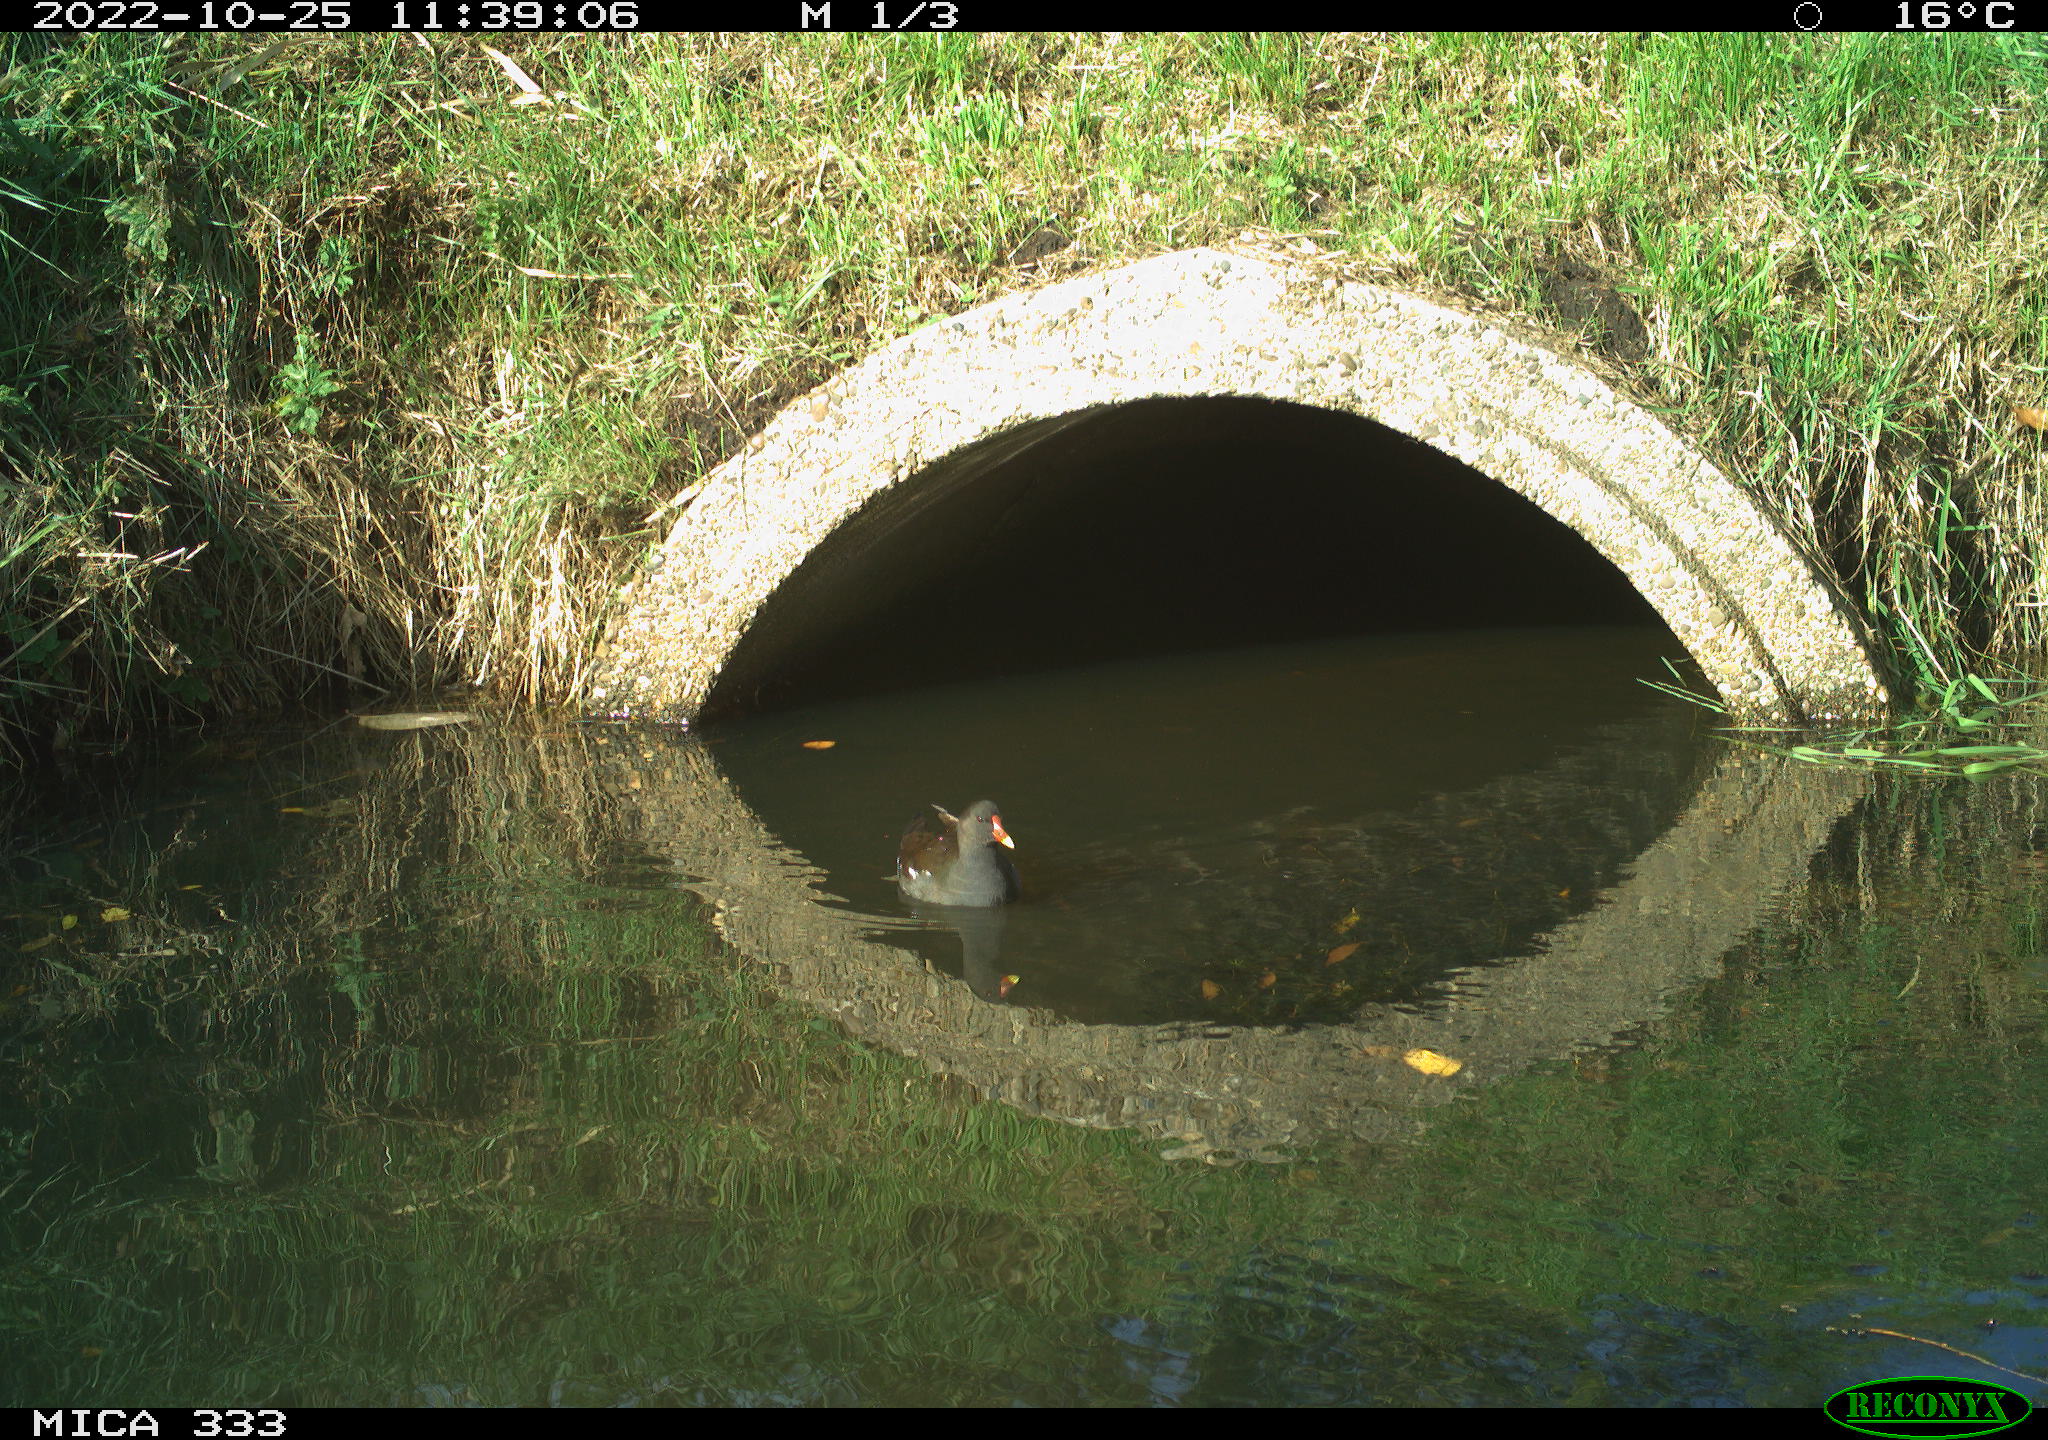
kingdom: Animalia
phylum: Chordata
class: Aves
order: Gruiformes
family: Rallidae
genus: Gallinula
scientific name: Gallinula chloropus
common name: Common moorhen
